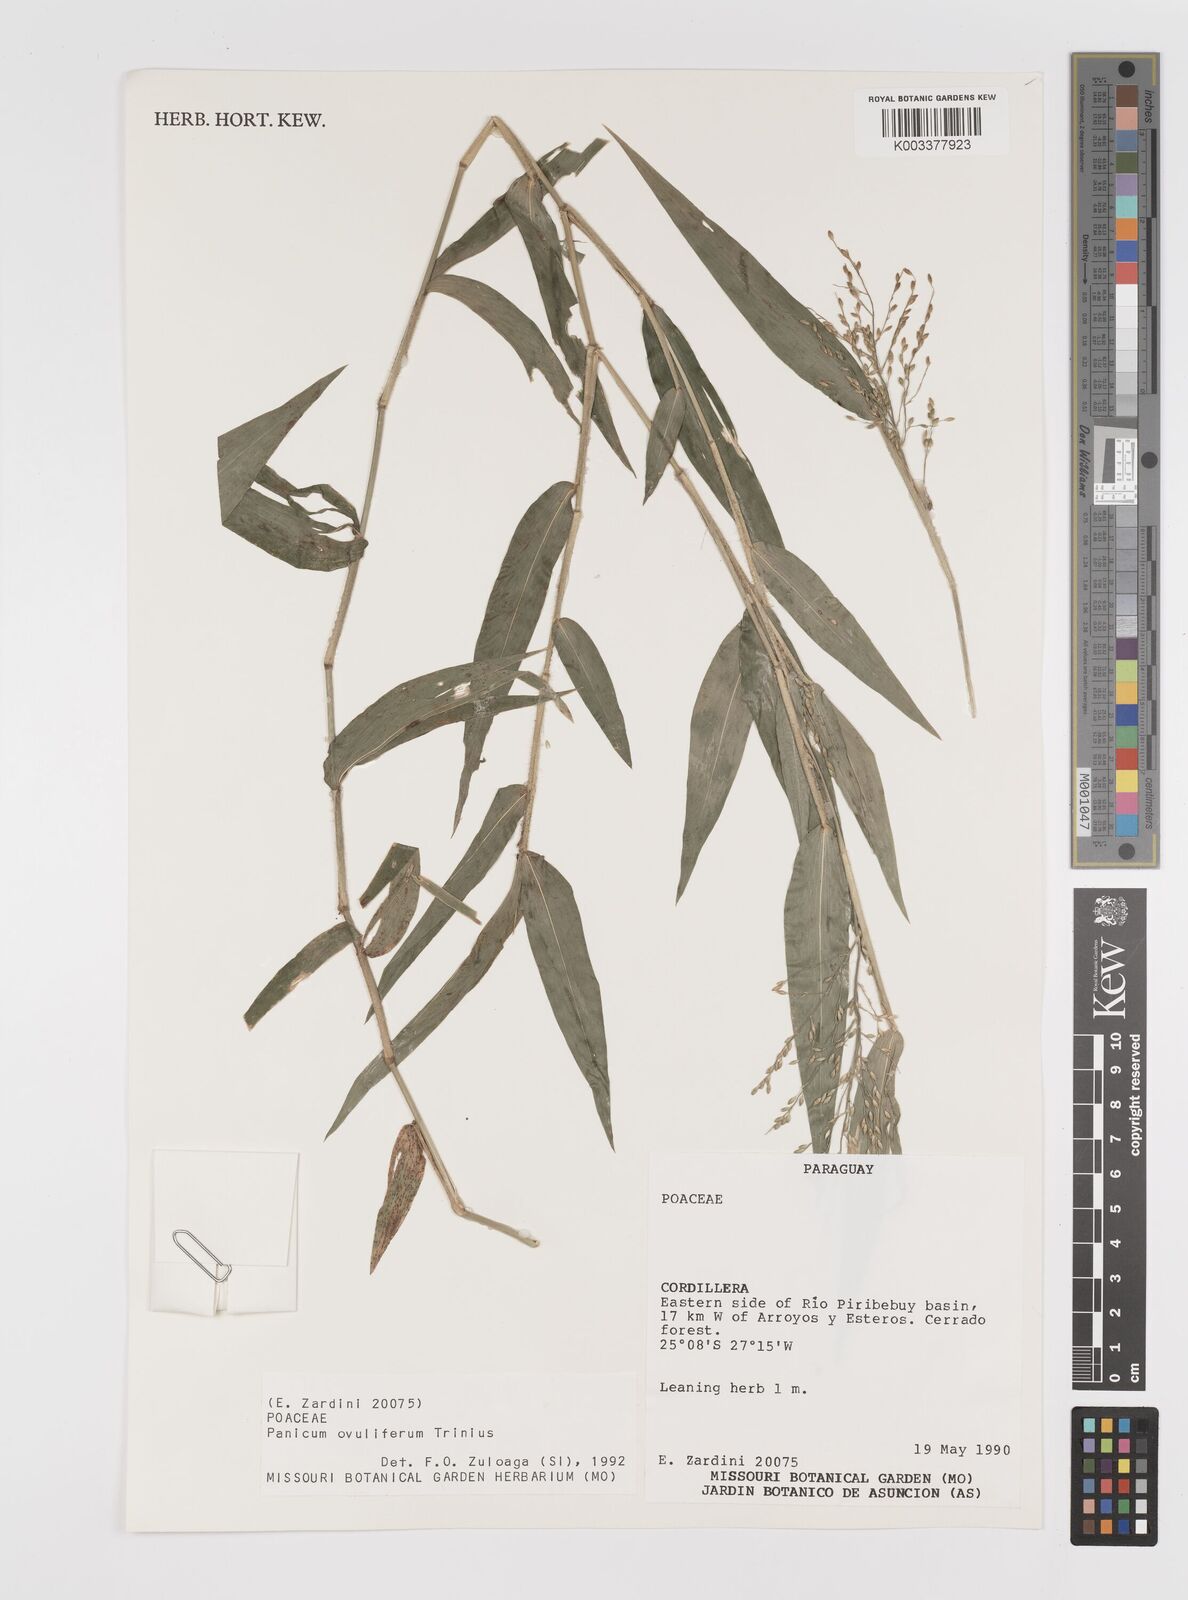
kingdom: Plantae
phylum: Tracheophyta
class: Liliopsida
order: Poales
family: Poaceae
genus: Parodiophyllochloa
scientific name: Parodiophyllochloa ovulifera
